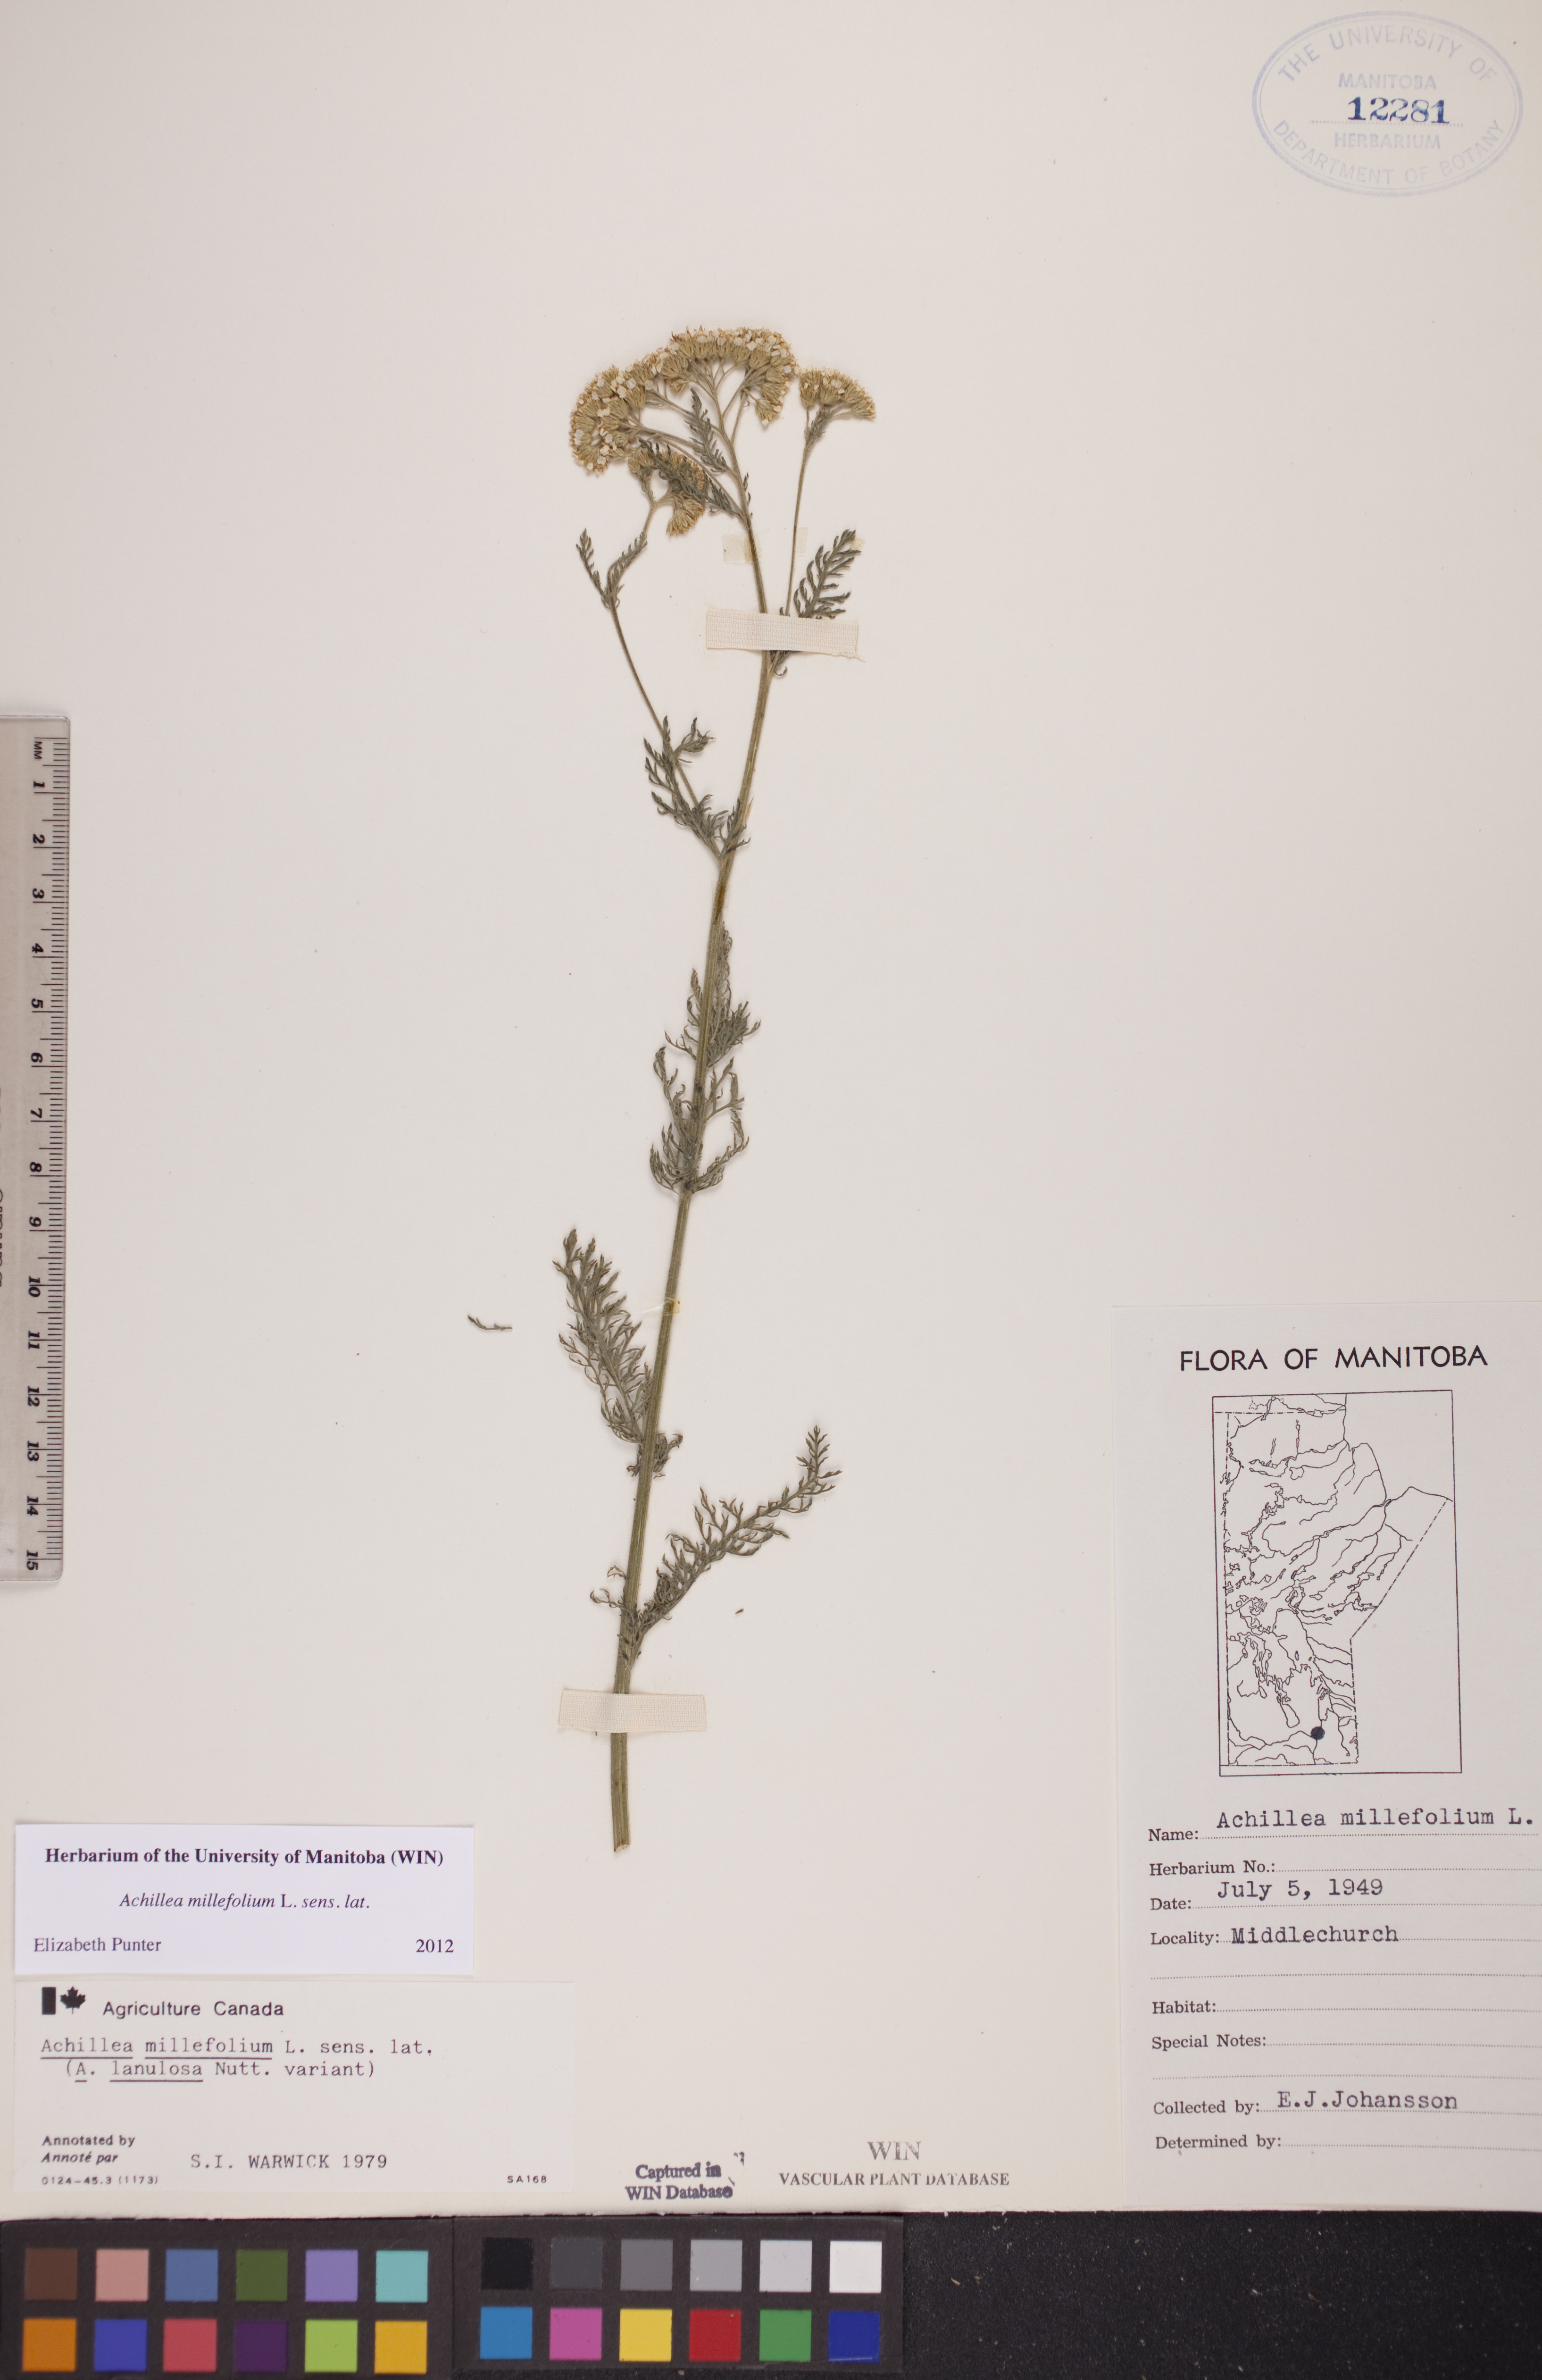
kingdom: Plantae
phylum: Tracheophyta
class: Magnoliopsida
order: Asterales
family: Asteraceae
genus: Achillea
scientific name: Achillea millefolium
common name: Yarrow
